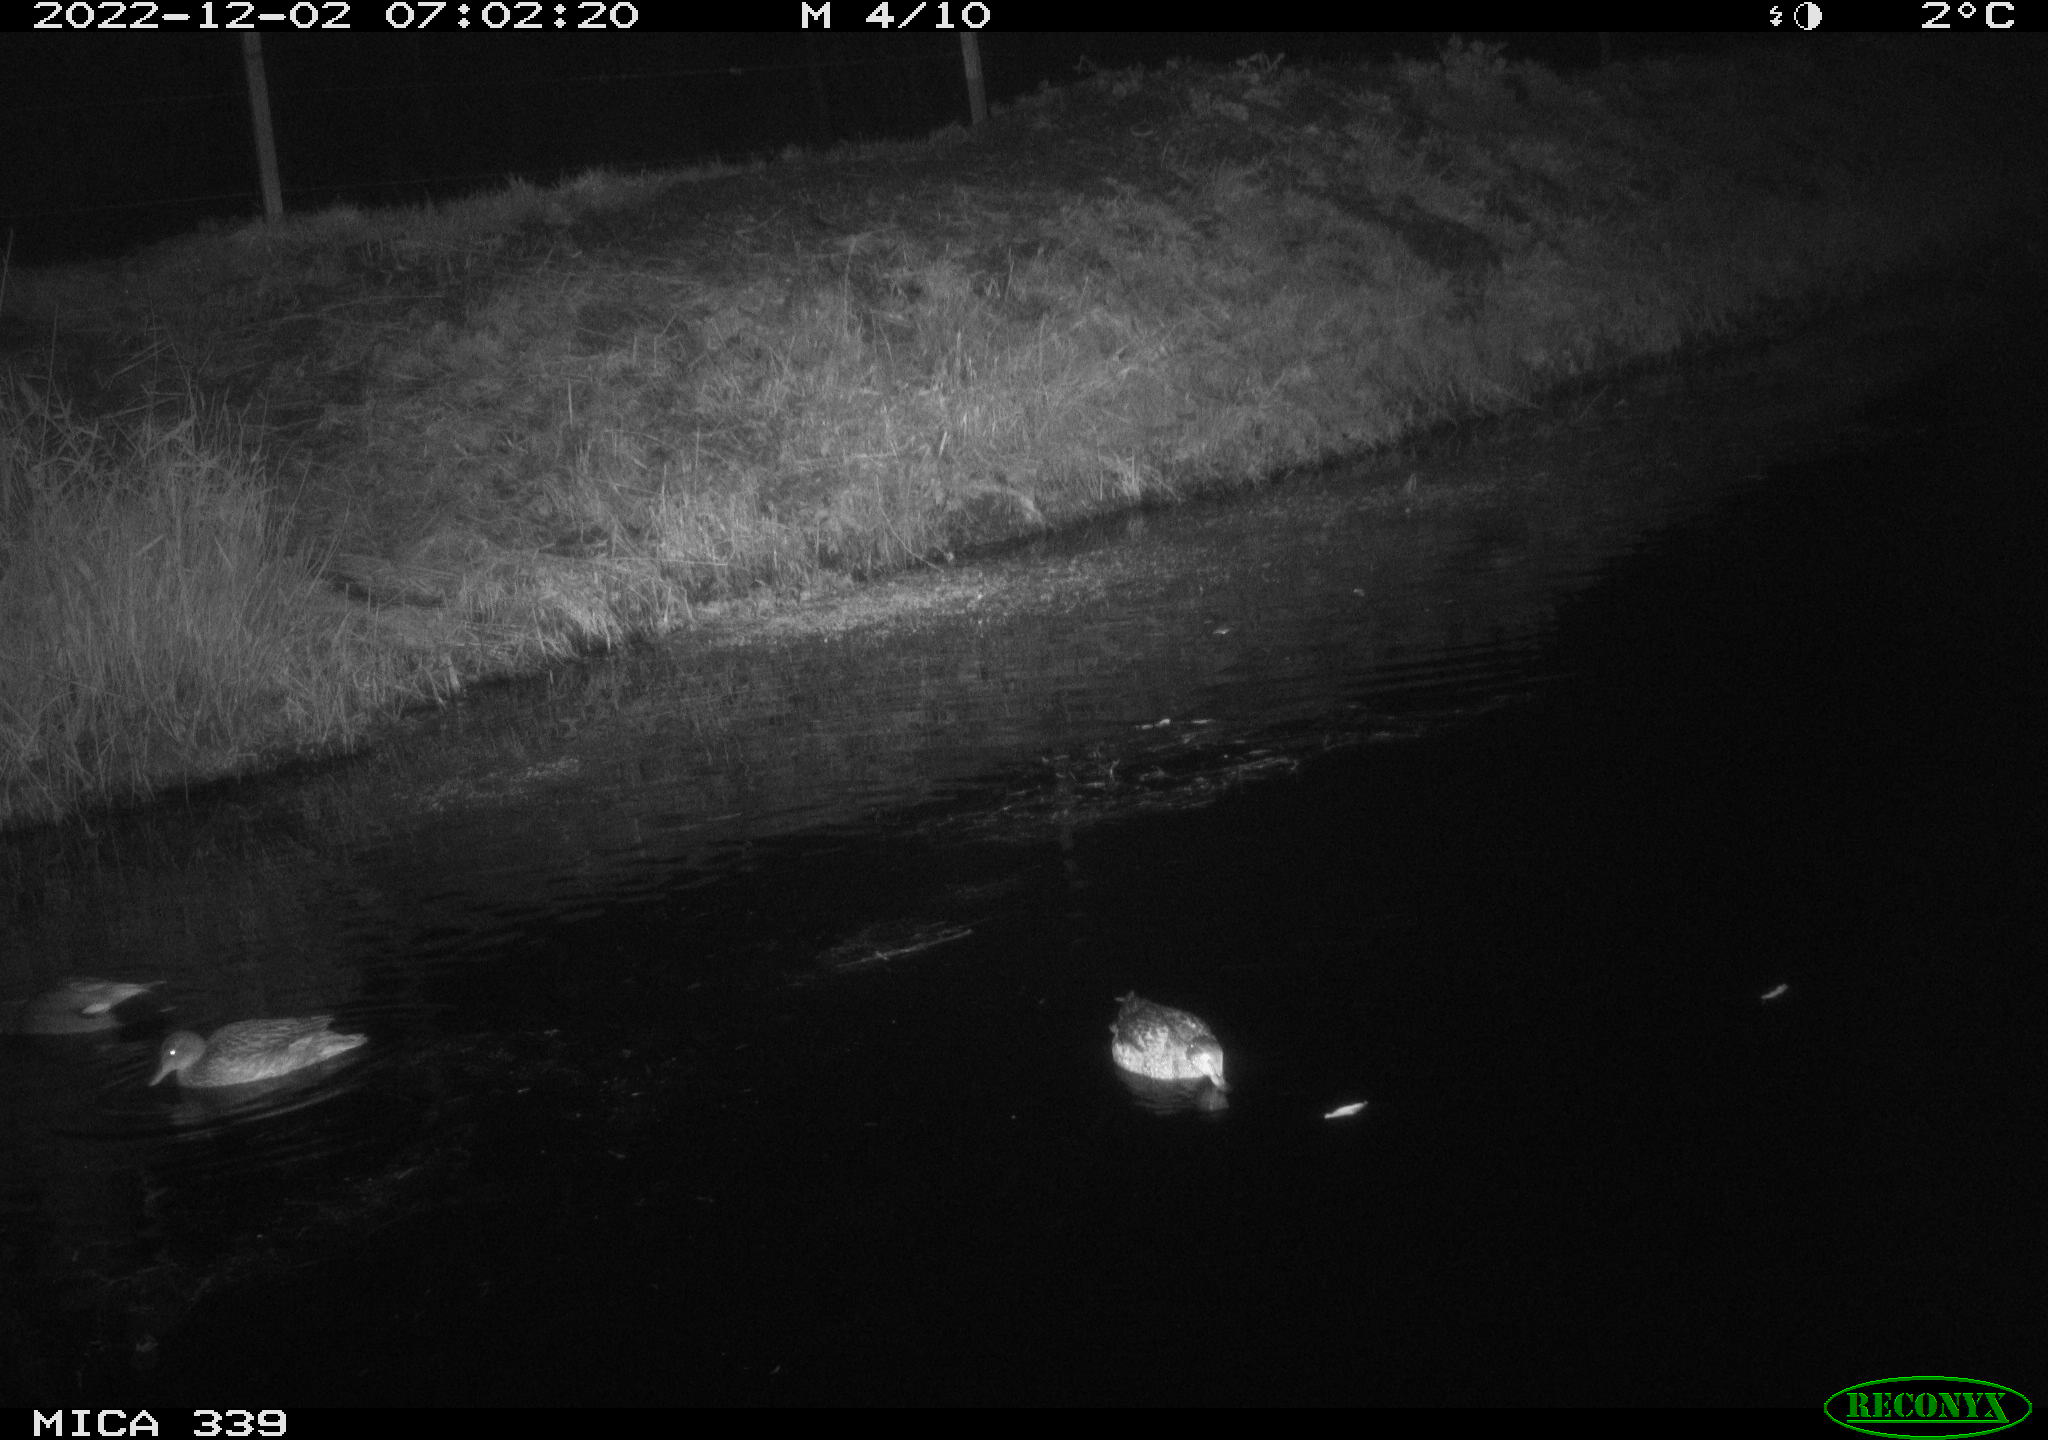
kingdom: Animalia
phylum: Chordata
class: Aves
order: Anseriformes
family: Anatidae
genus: Anas
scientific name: Anas platyrhynchos
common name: Mallard
